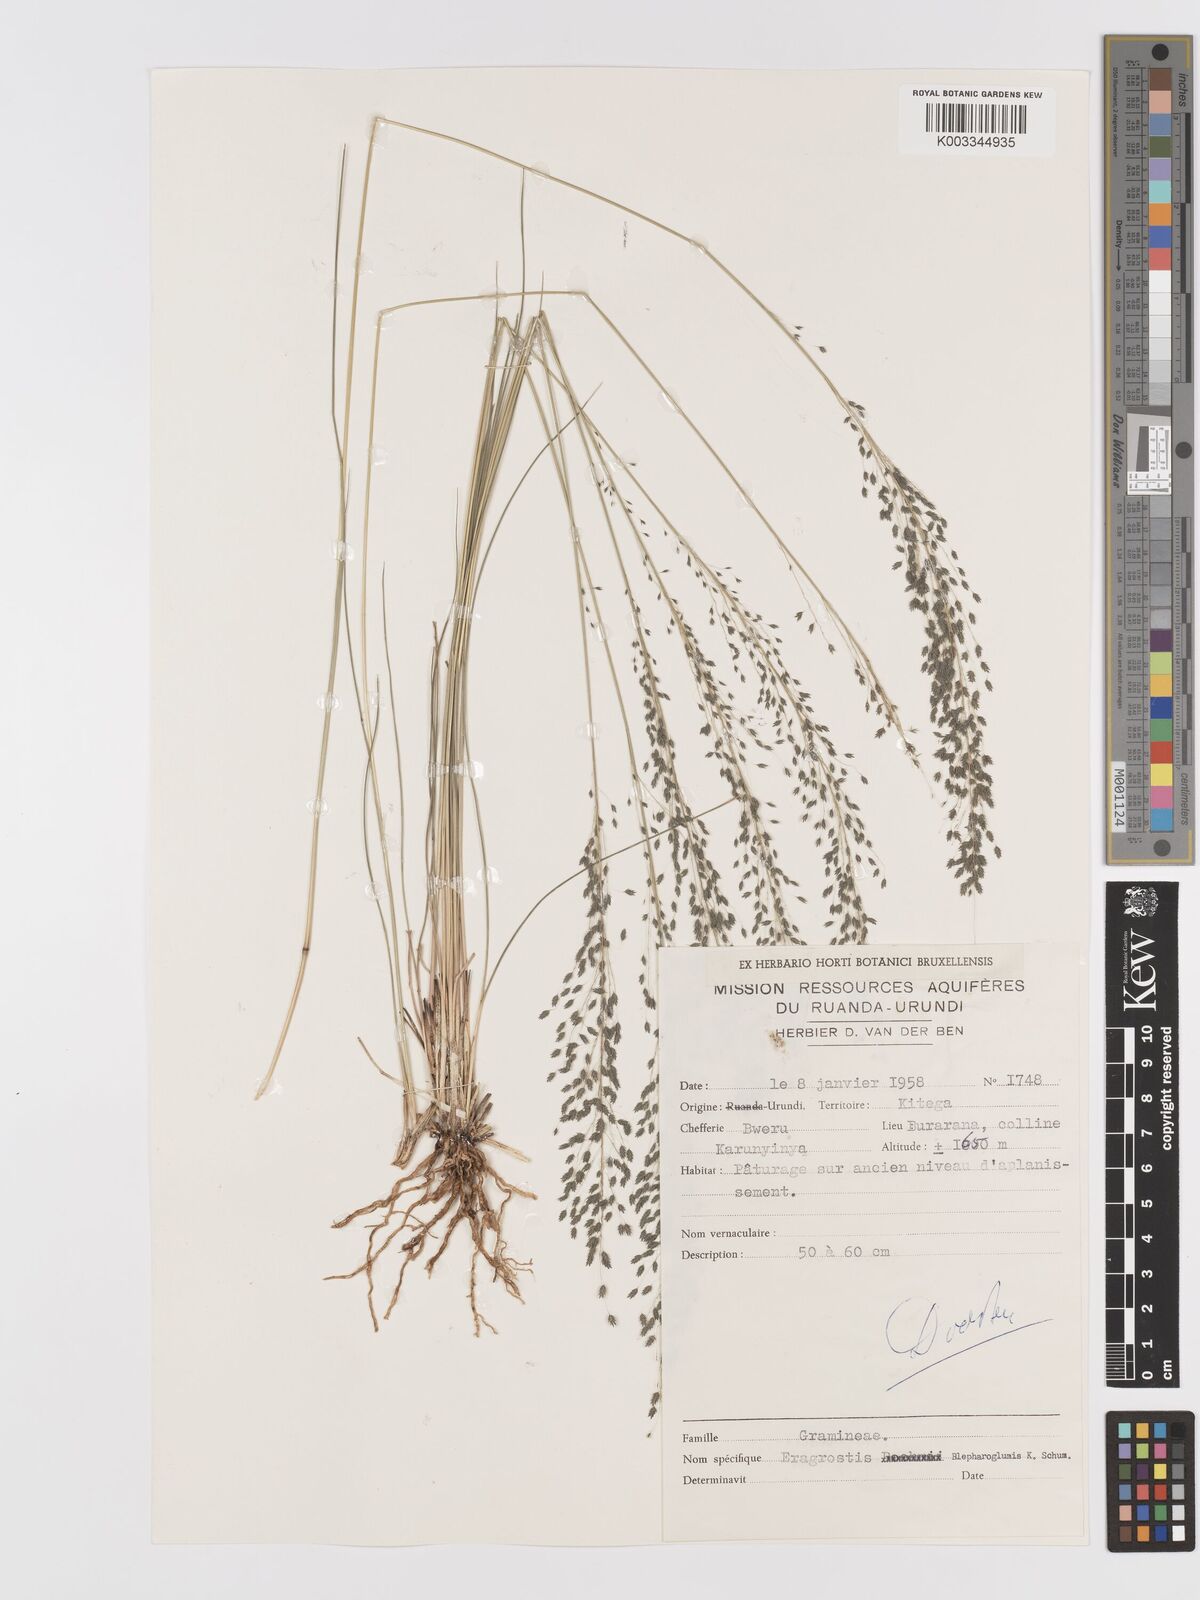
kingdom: Plantae
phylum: Tracheophyta
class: Liliopsida
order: Poales
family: Poaceae
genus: Eragrostis
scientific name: Eragrostis olivacea
